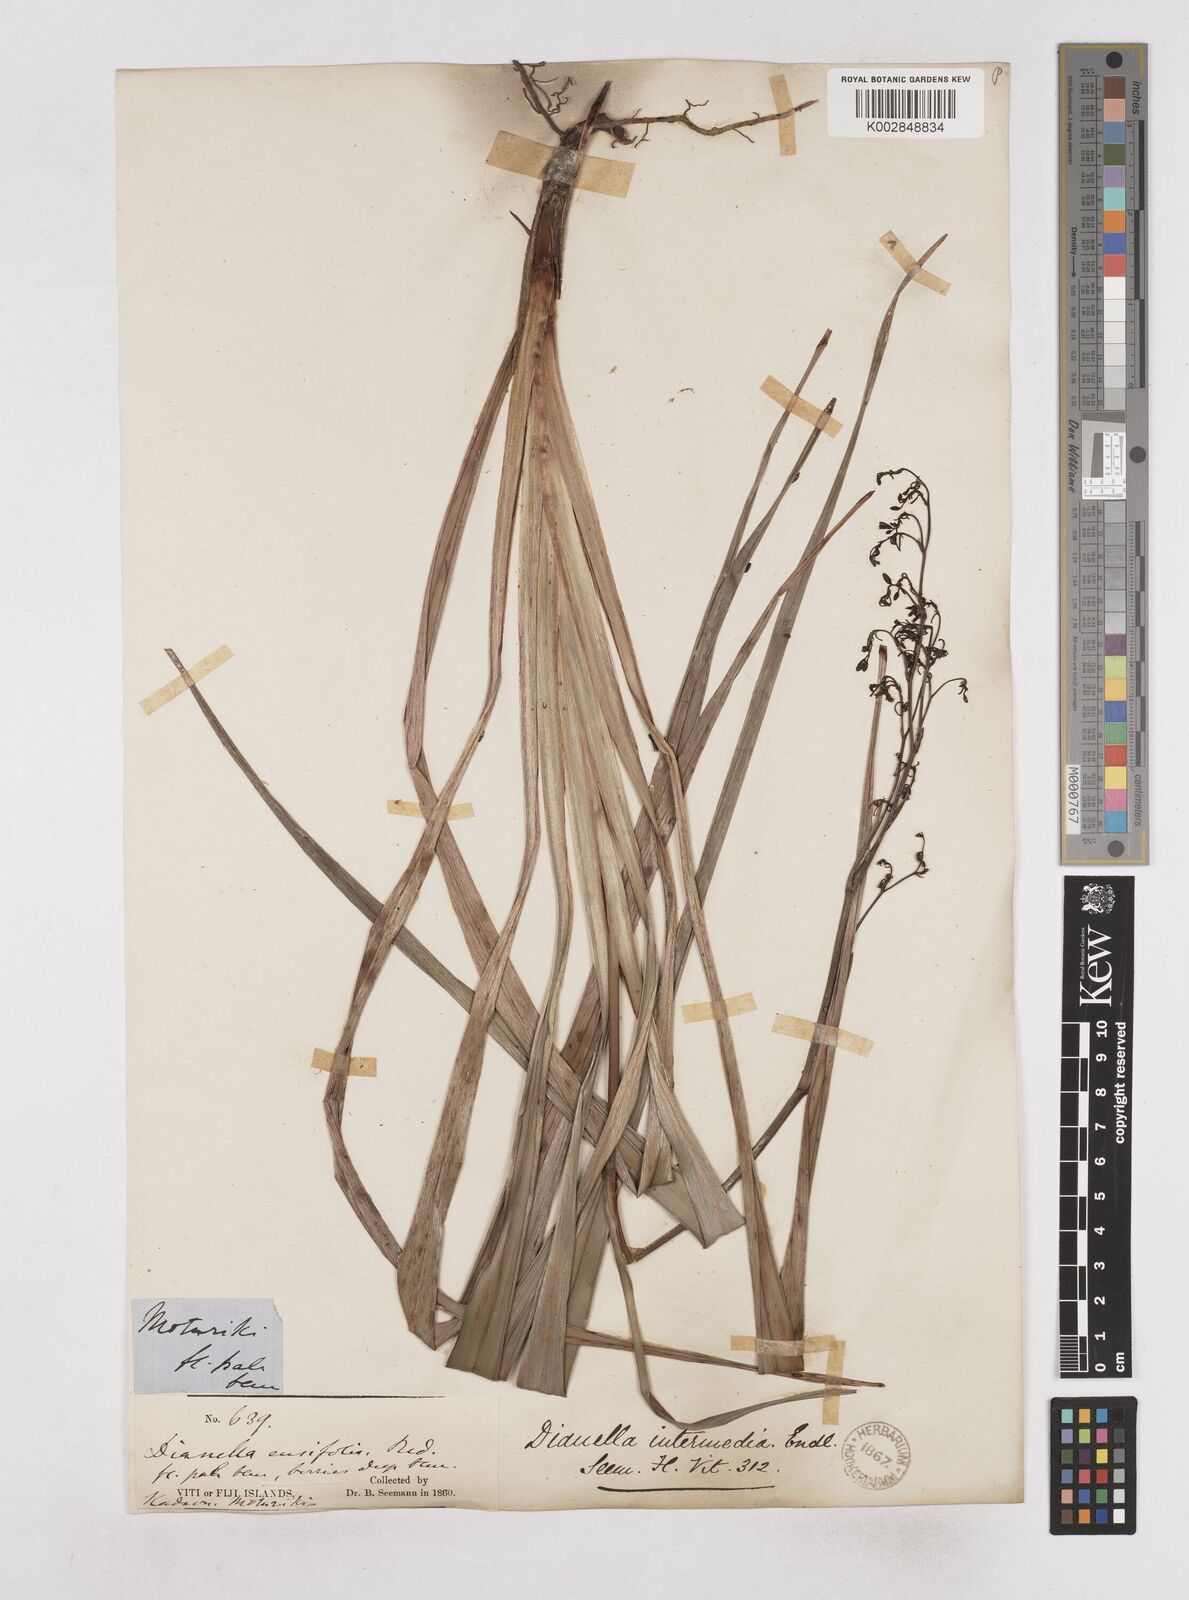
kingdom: Plantae
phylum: Tracheophyta
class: Liliopsida
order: Asparagales
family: Asphodelaceae
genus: Dianella
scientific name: Dianella ensifolia
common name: New zealand lilyplant
